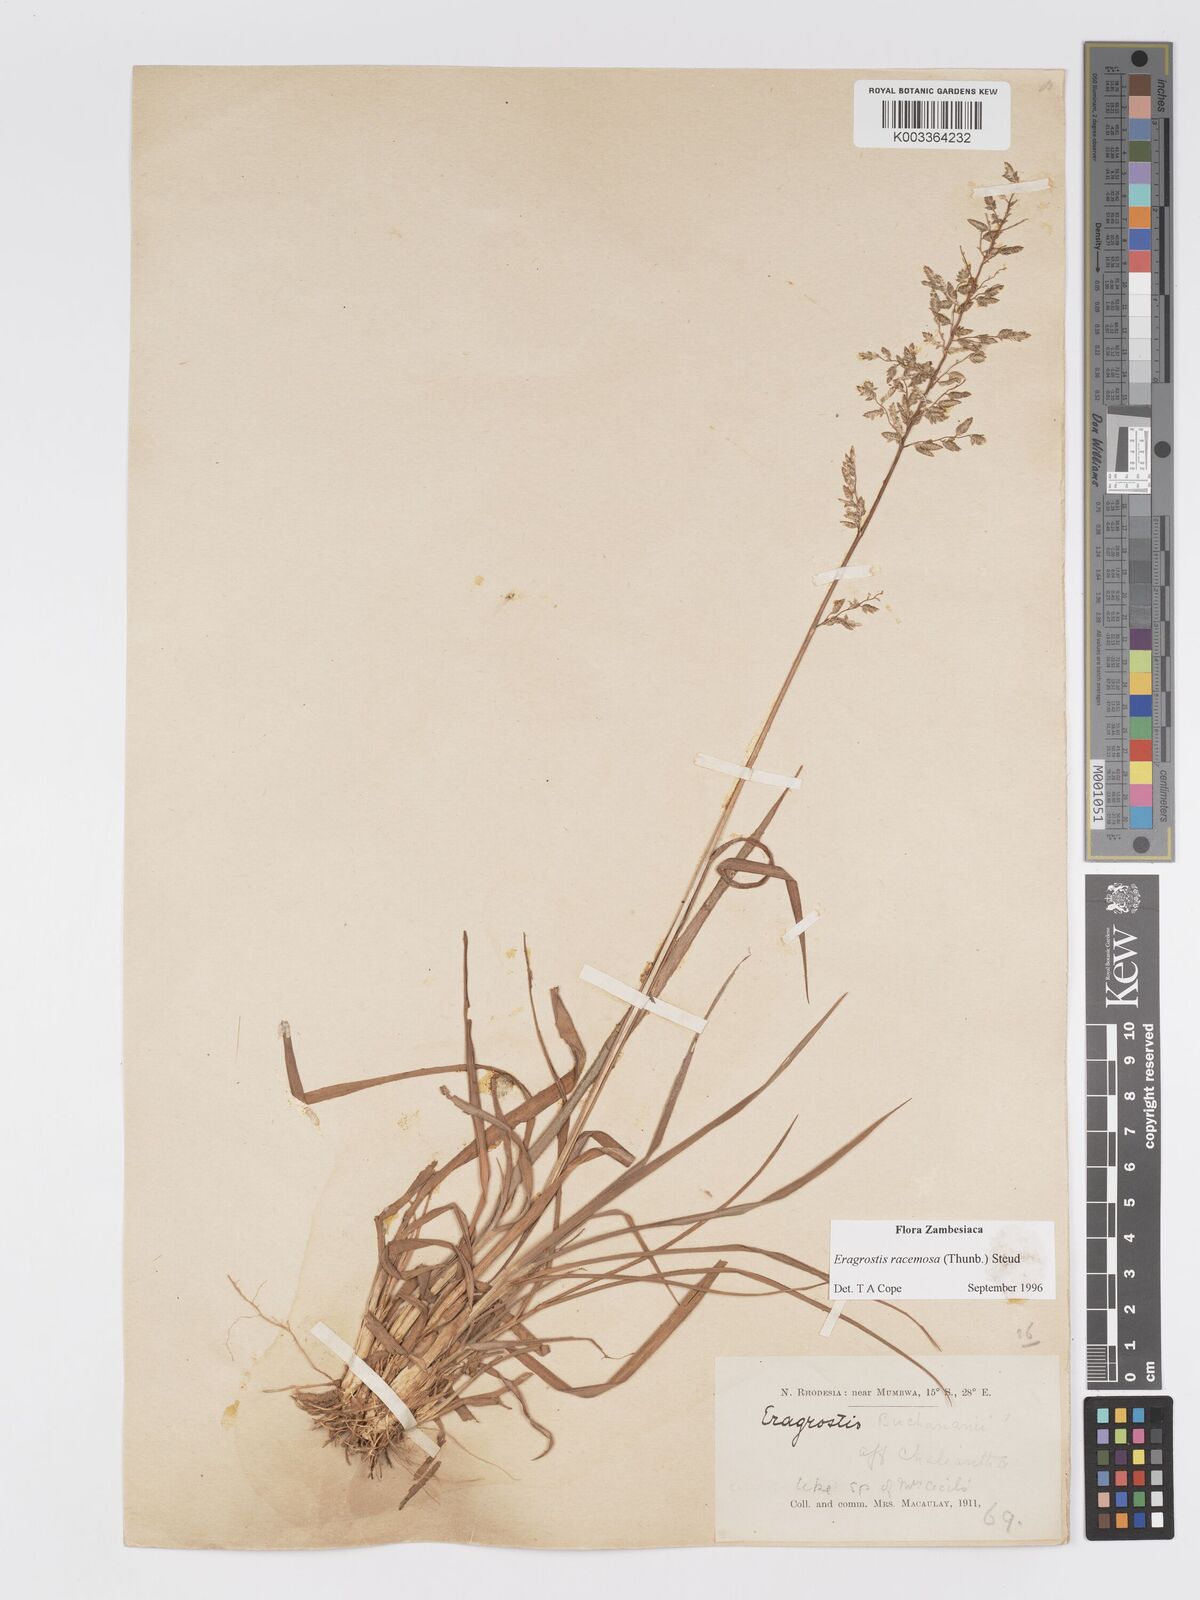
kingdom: Plantae
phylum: Tracheophyta
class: Liliopsida
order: Poales
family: Poaceae
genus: Eragrostis
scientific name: Eragrostis racemosa
